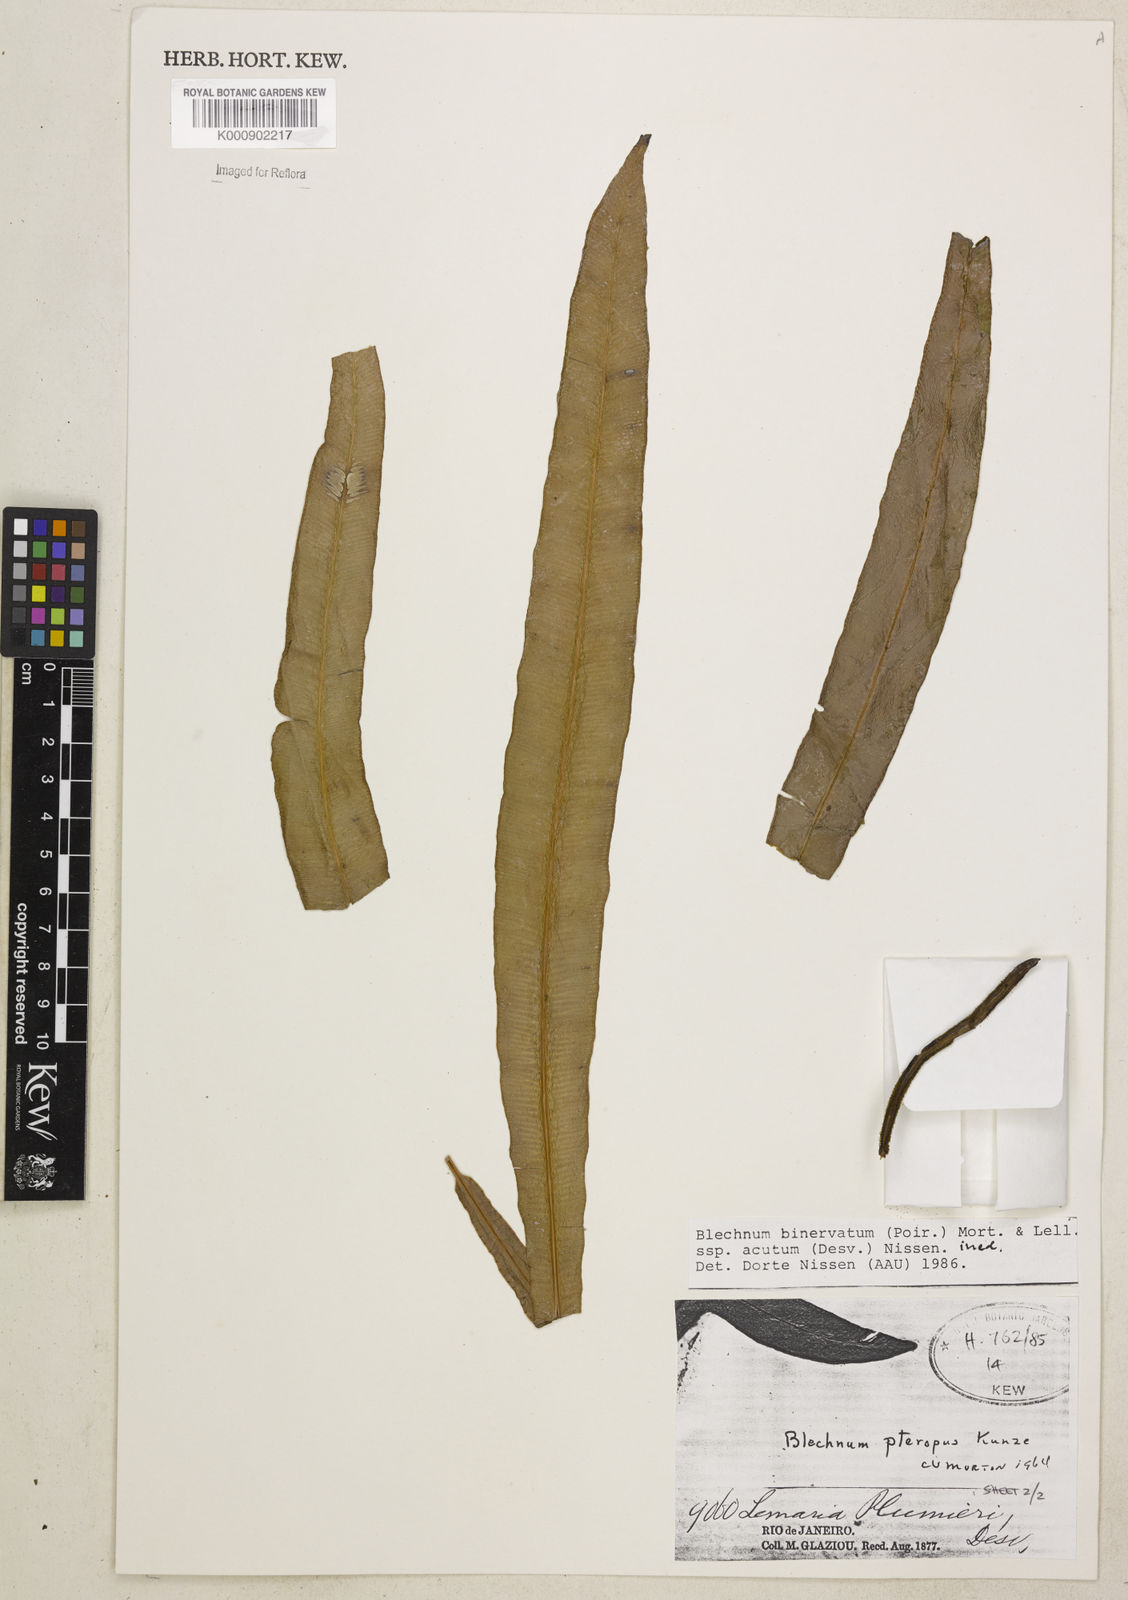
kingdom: Plantae
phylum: Tracheophyta
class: Polypodiopsida
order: Polypodiales
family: Blechnaceae
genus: Lomaridium
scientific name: Lomaridium pteropus
